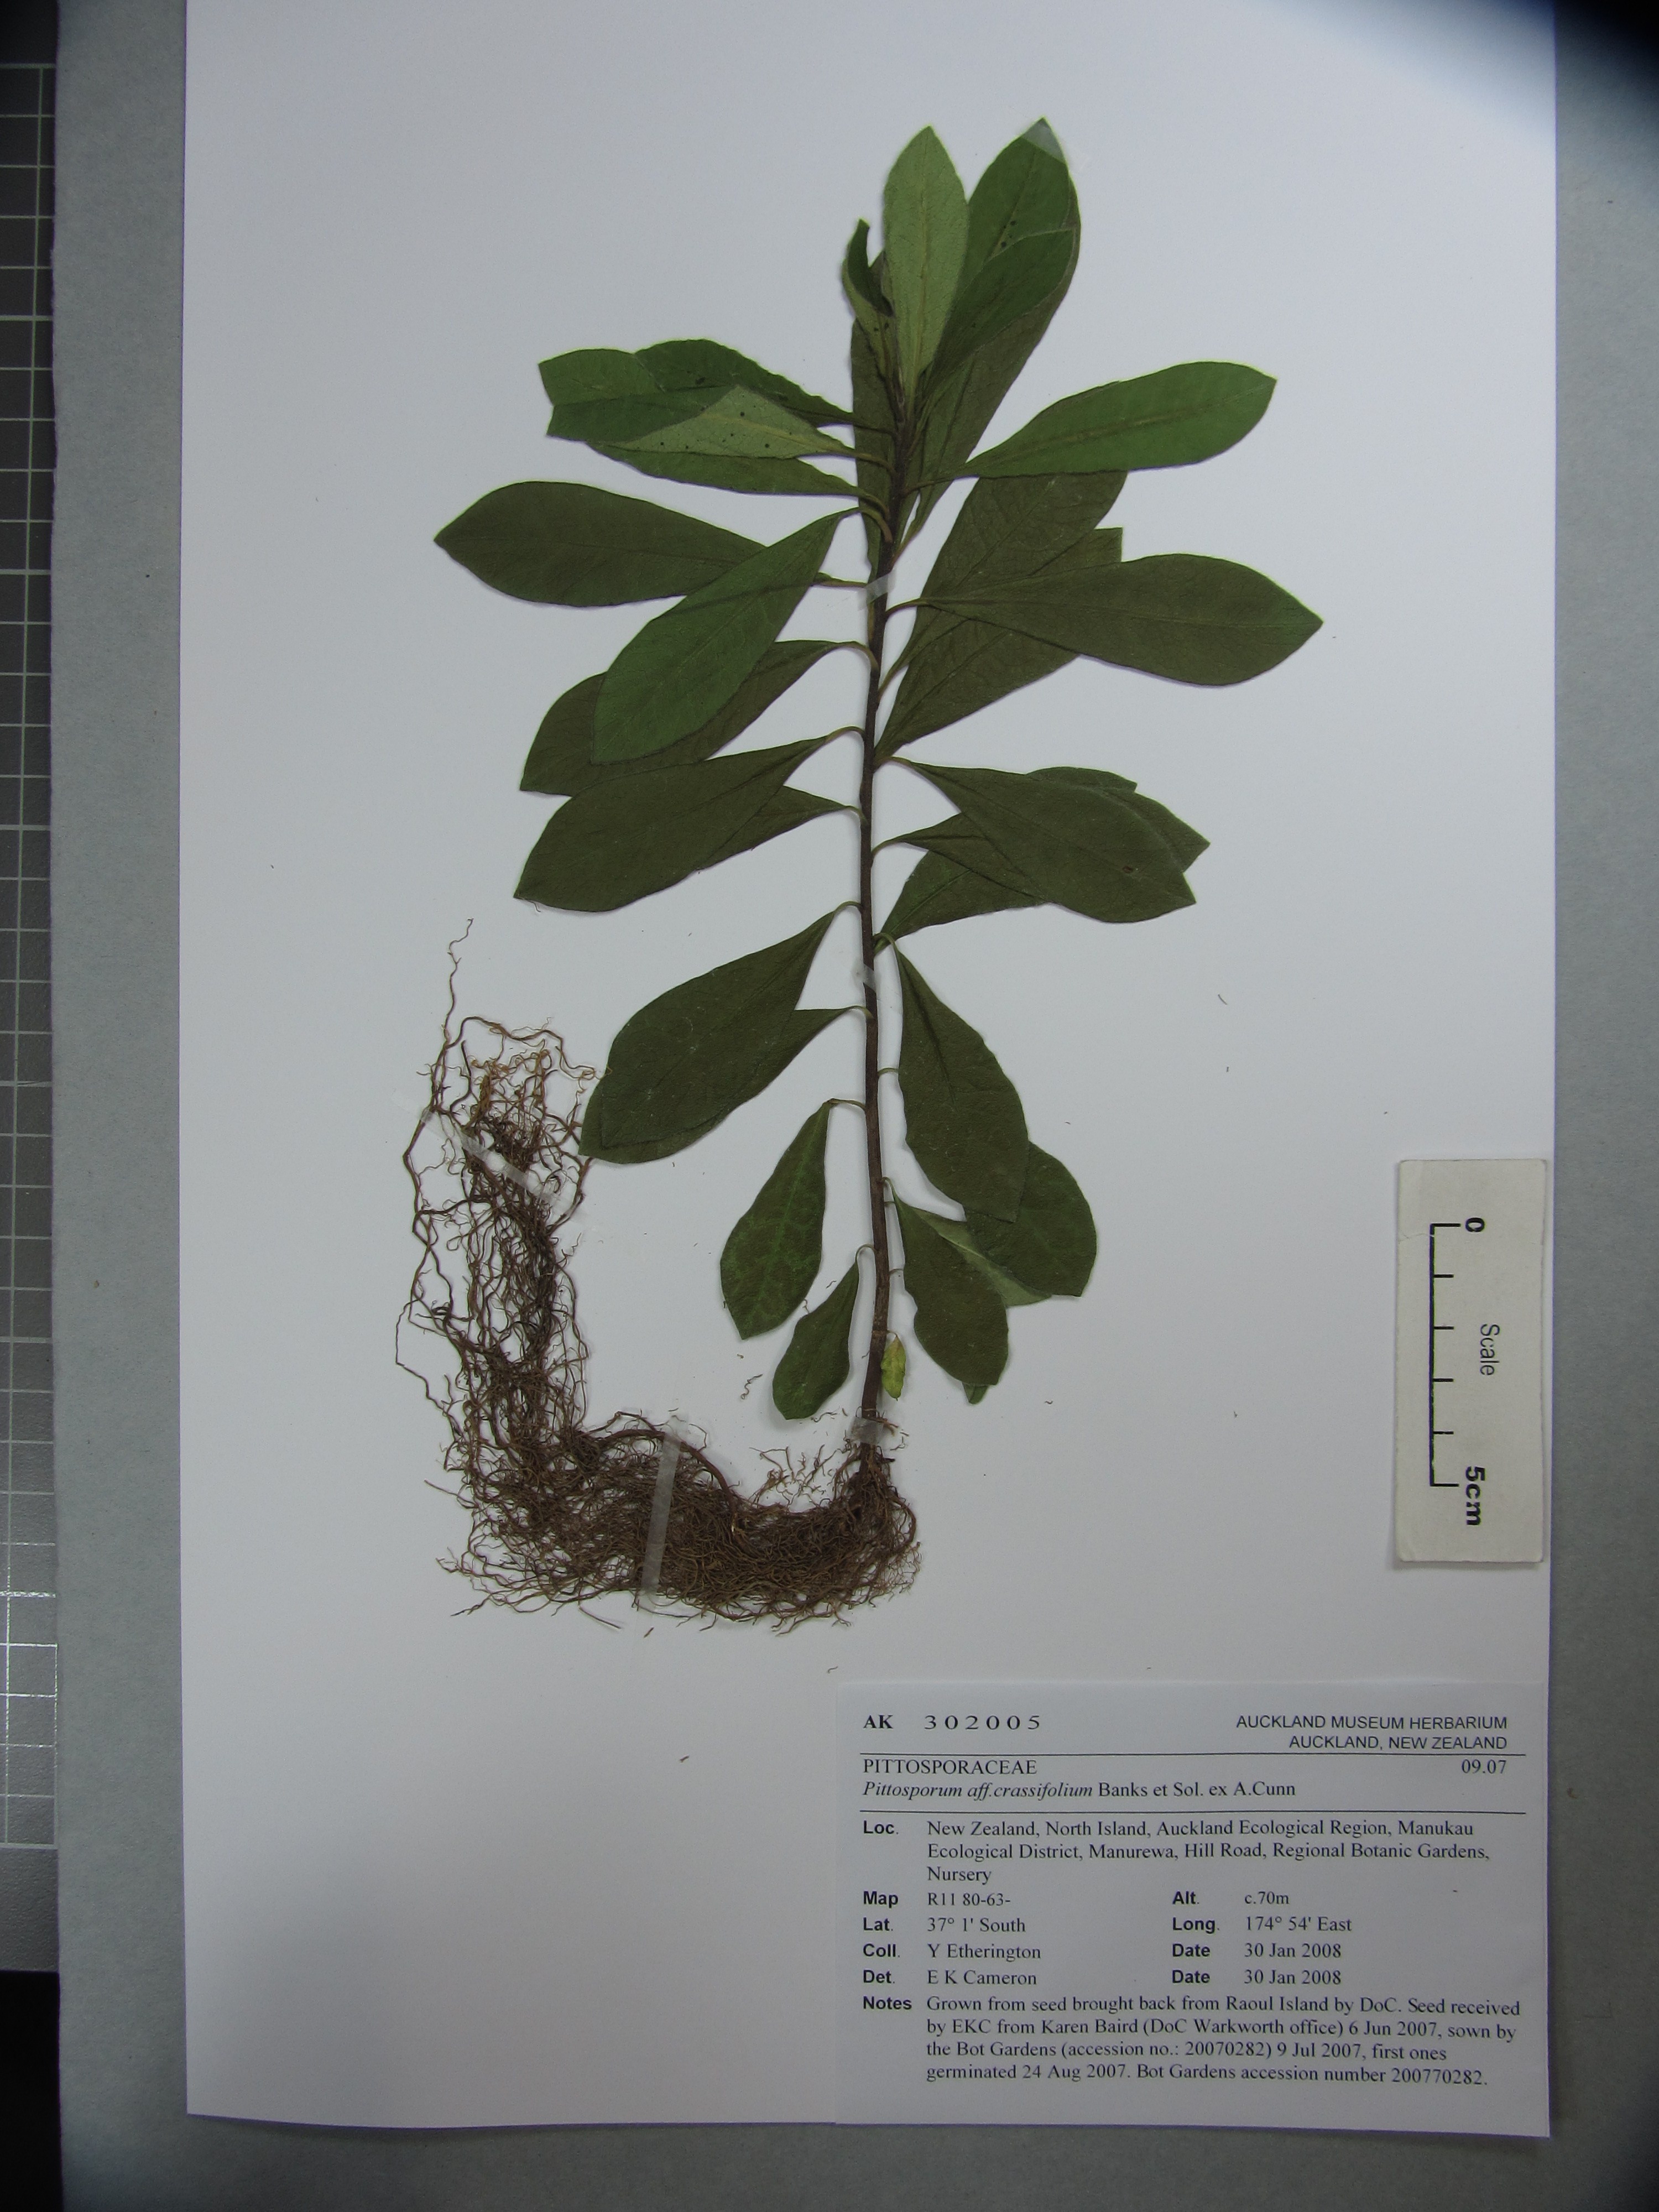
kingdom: Plantae
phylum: Tracheophyta
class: Magnoliopsida
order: Apiales
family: Pittosporaceae
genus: Pittosporum
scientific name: Pittosporum rangitahua
